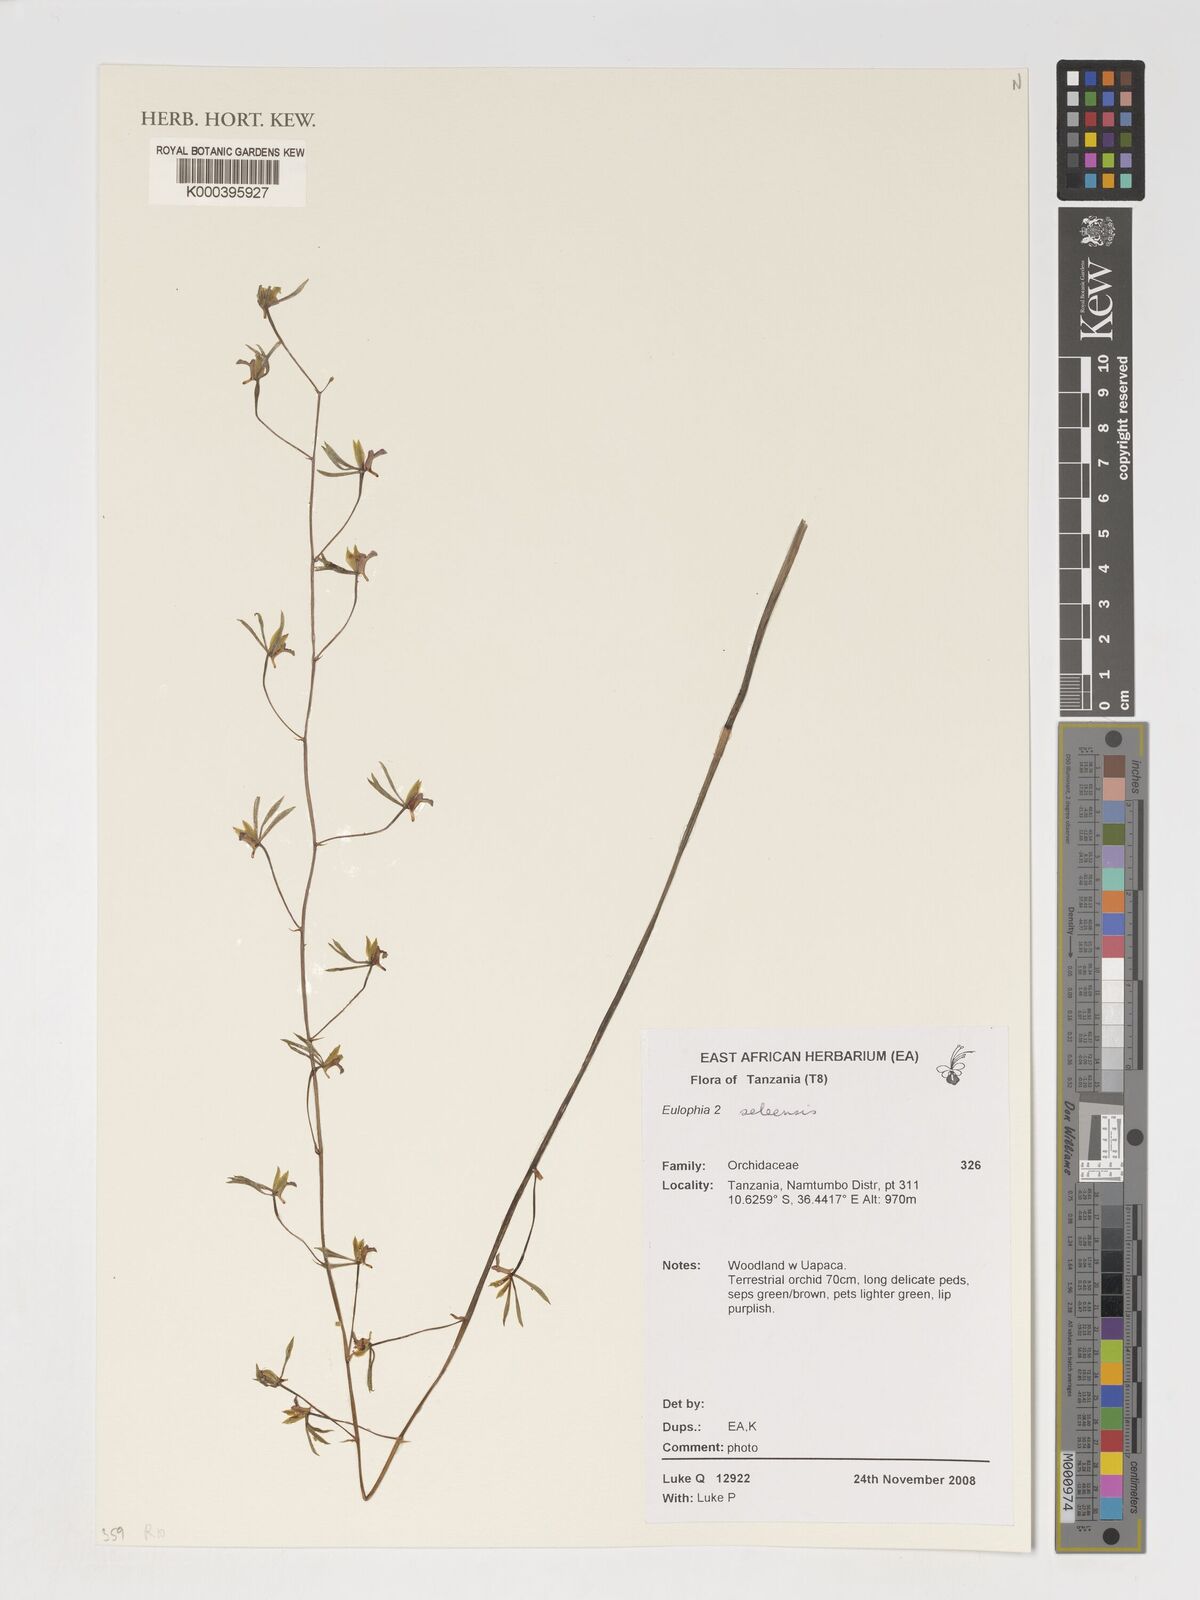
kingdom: Plantae
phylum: Tracheophyta
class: Liliopsida
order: Asparagales
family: Orchidaceae
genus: Eulophia
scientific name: Eulophia
